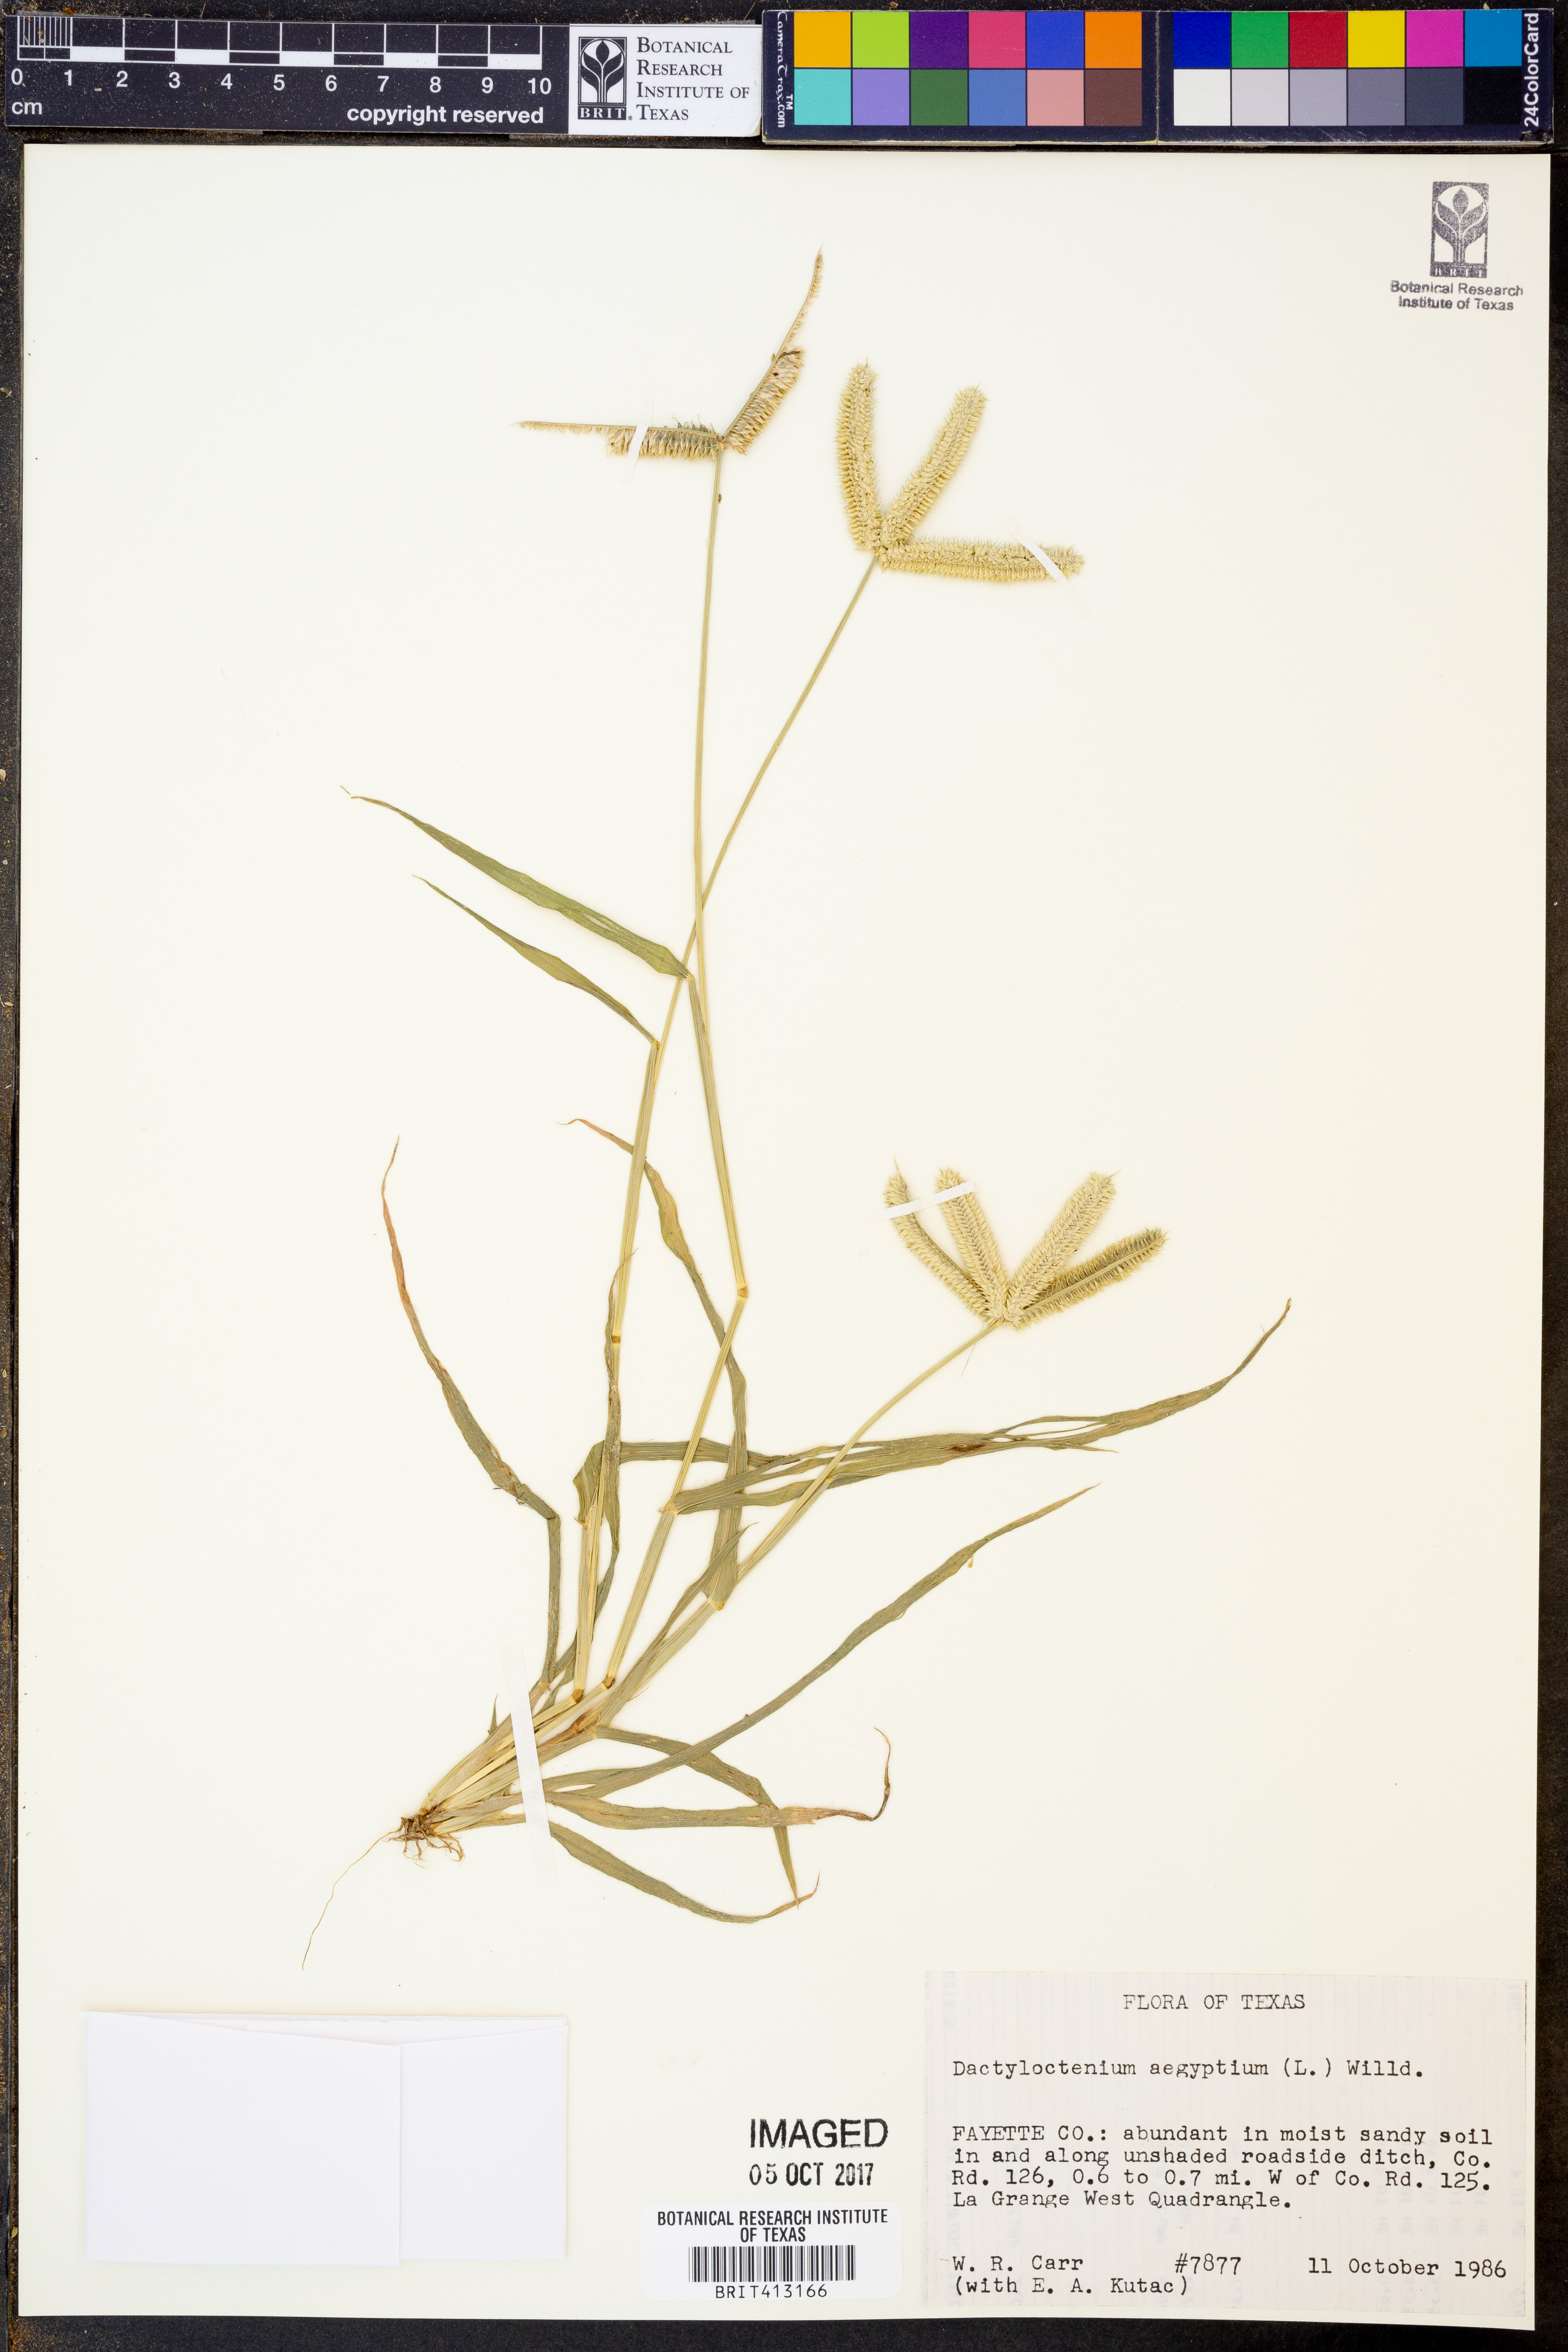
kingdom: Plantae
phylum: Tracheophyta
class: Liliopsida
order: Poales
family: Poaceae
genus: Dactyloctenium
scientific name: Dactyloctenium aegyptium
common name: Egyptian grass
